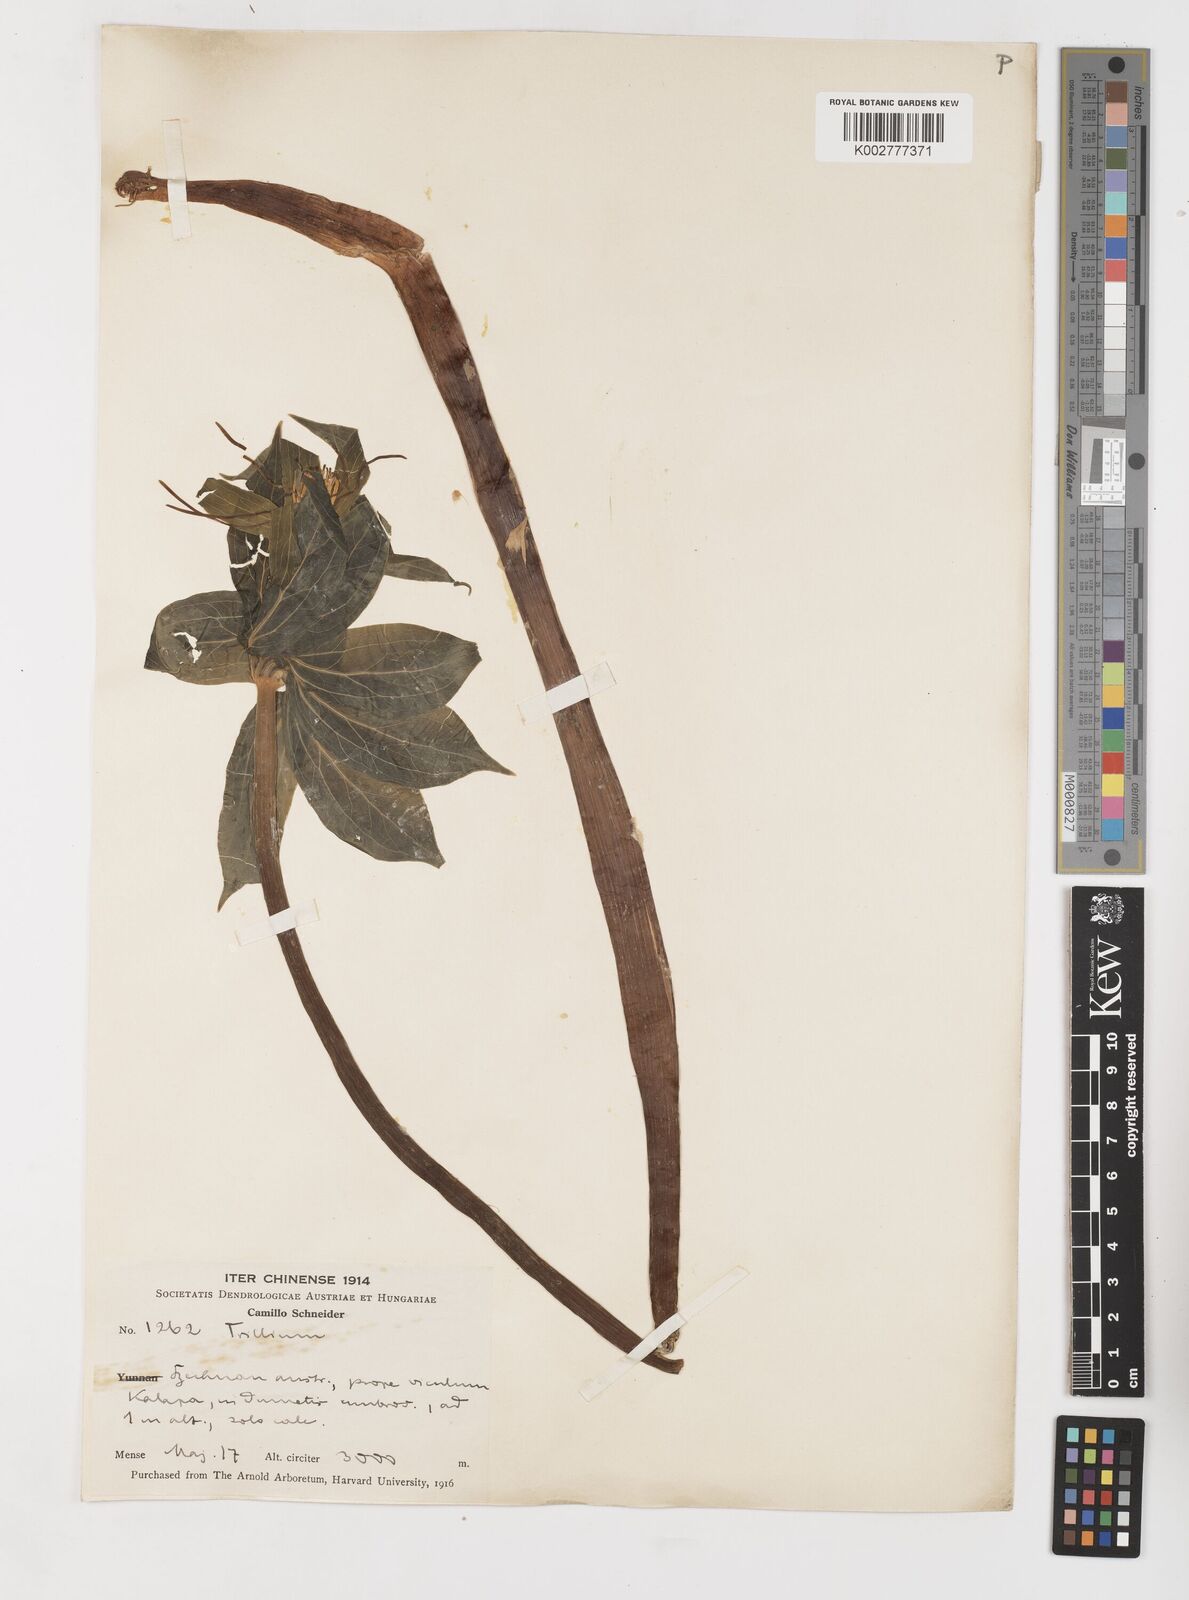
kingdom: Plantae
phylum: Tracheophyta
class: Liliopsida
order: Liliales
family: Melanthiaceae
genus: Paris
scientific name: Paris
